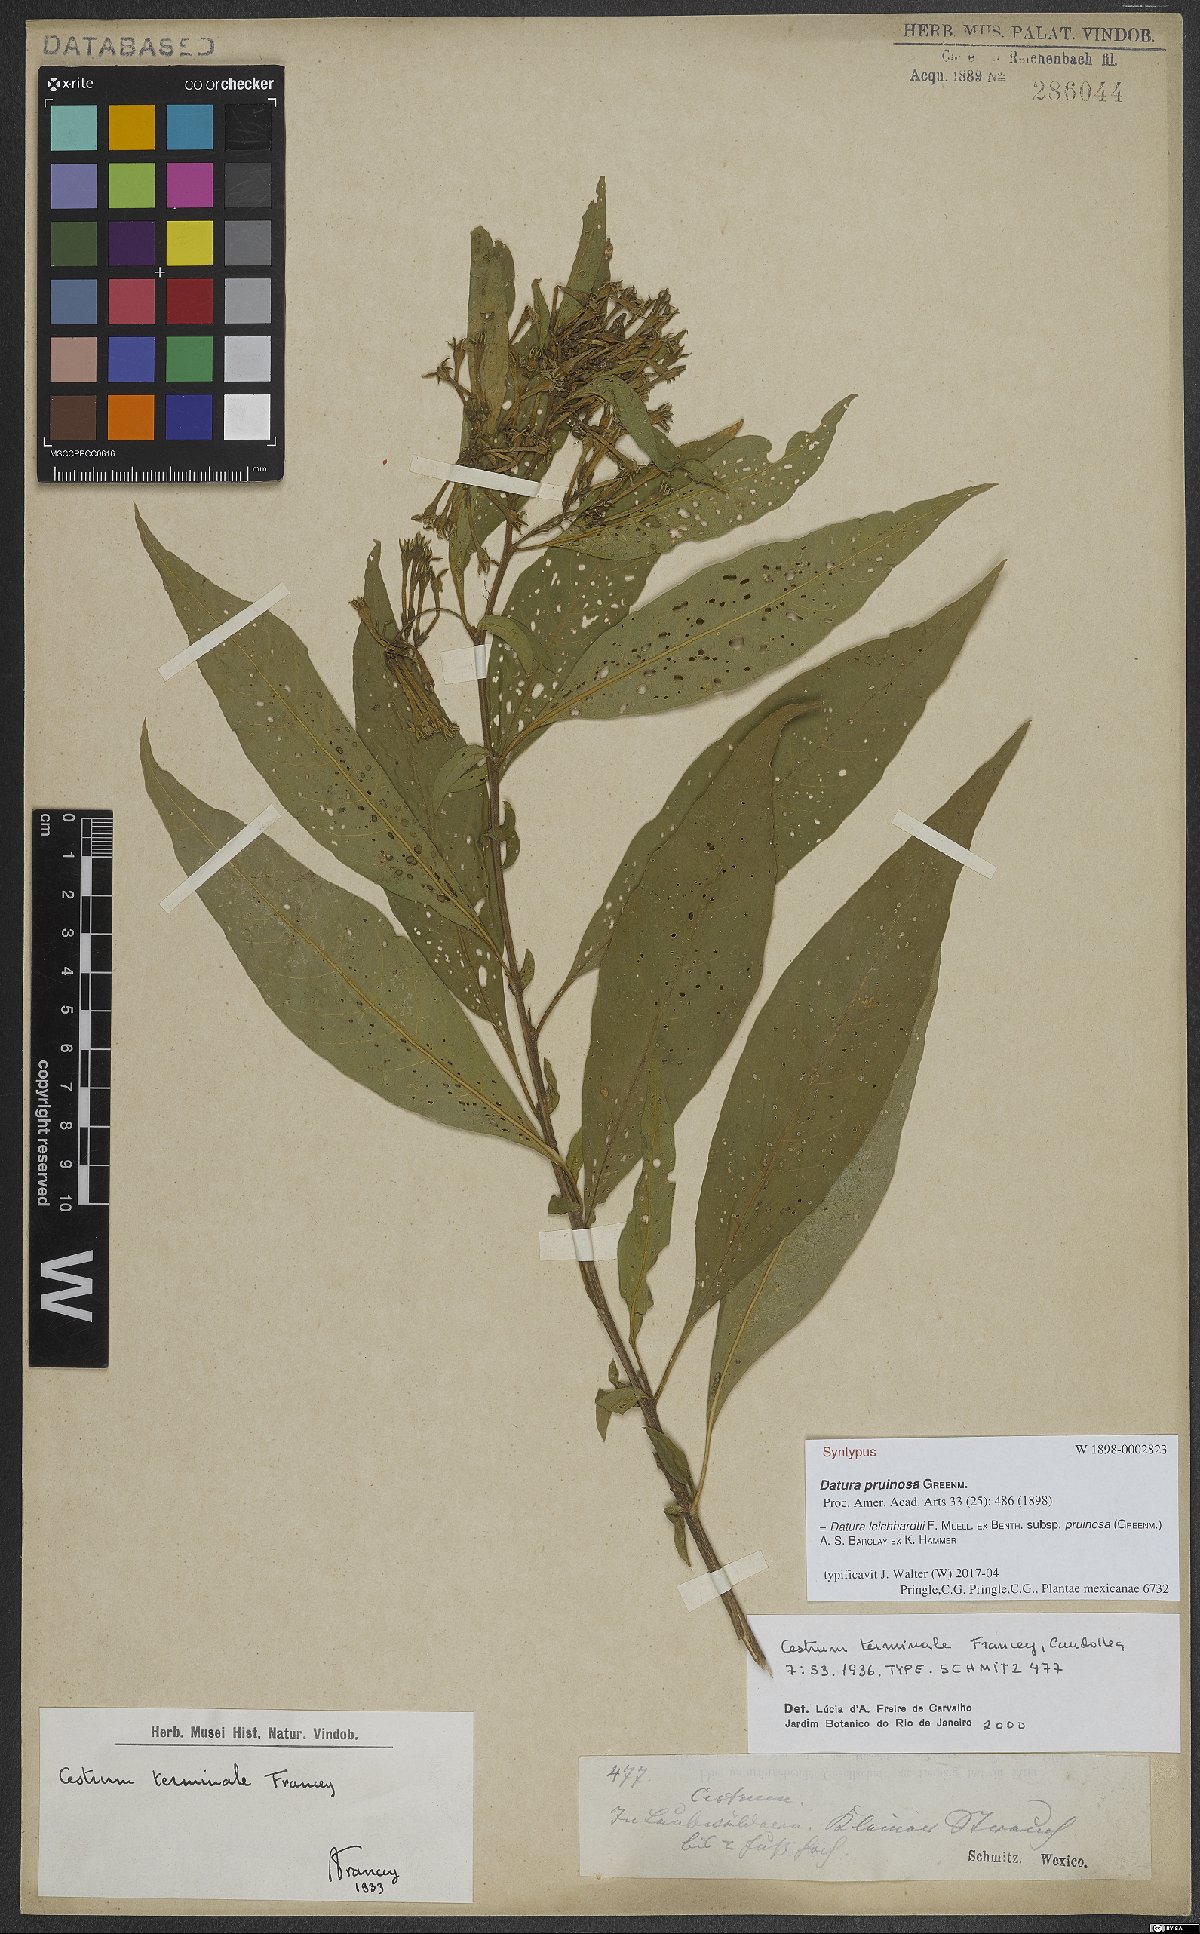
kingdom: Plantae
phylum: Tracheophyta
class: Magnoliopsida
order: Solanales
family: Solanaceae
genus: Cestrum
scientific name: Cestrum nitidum
